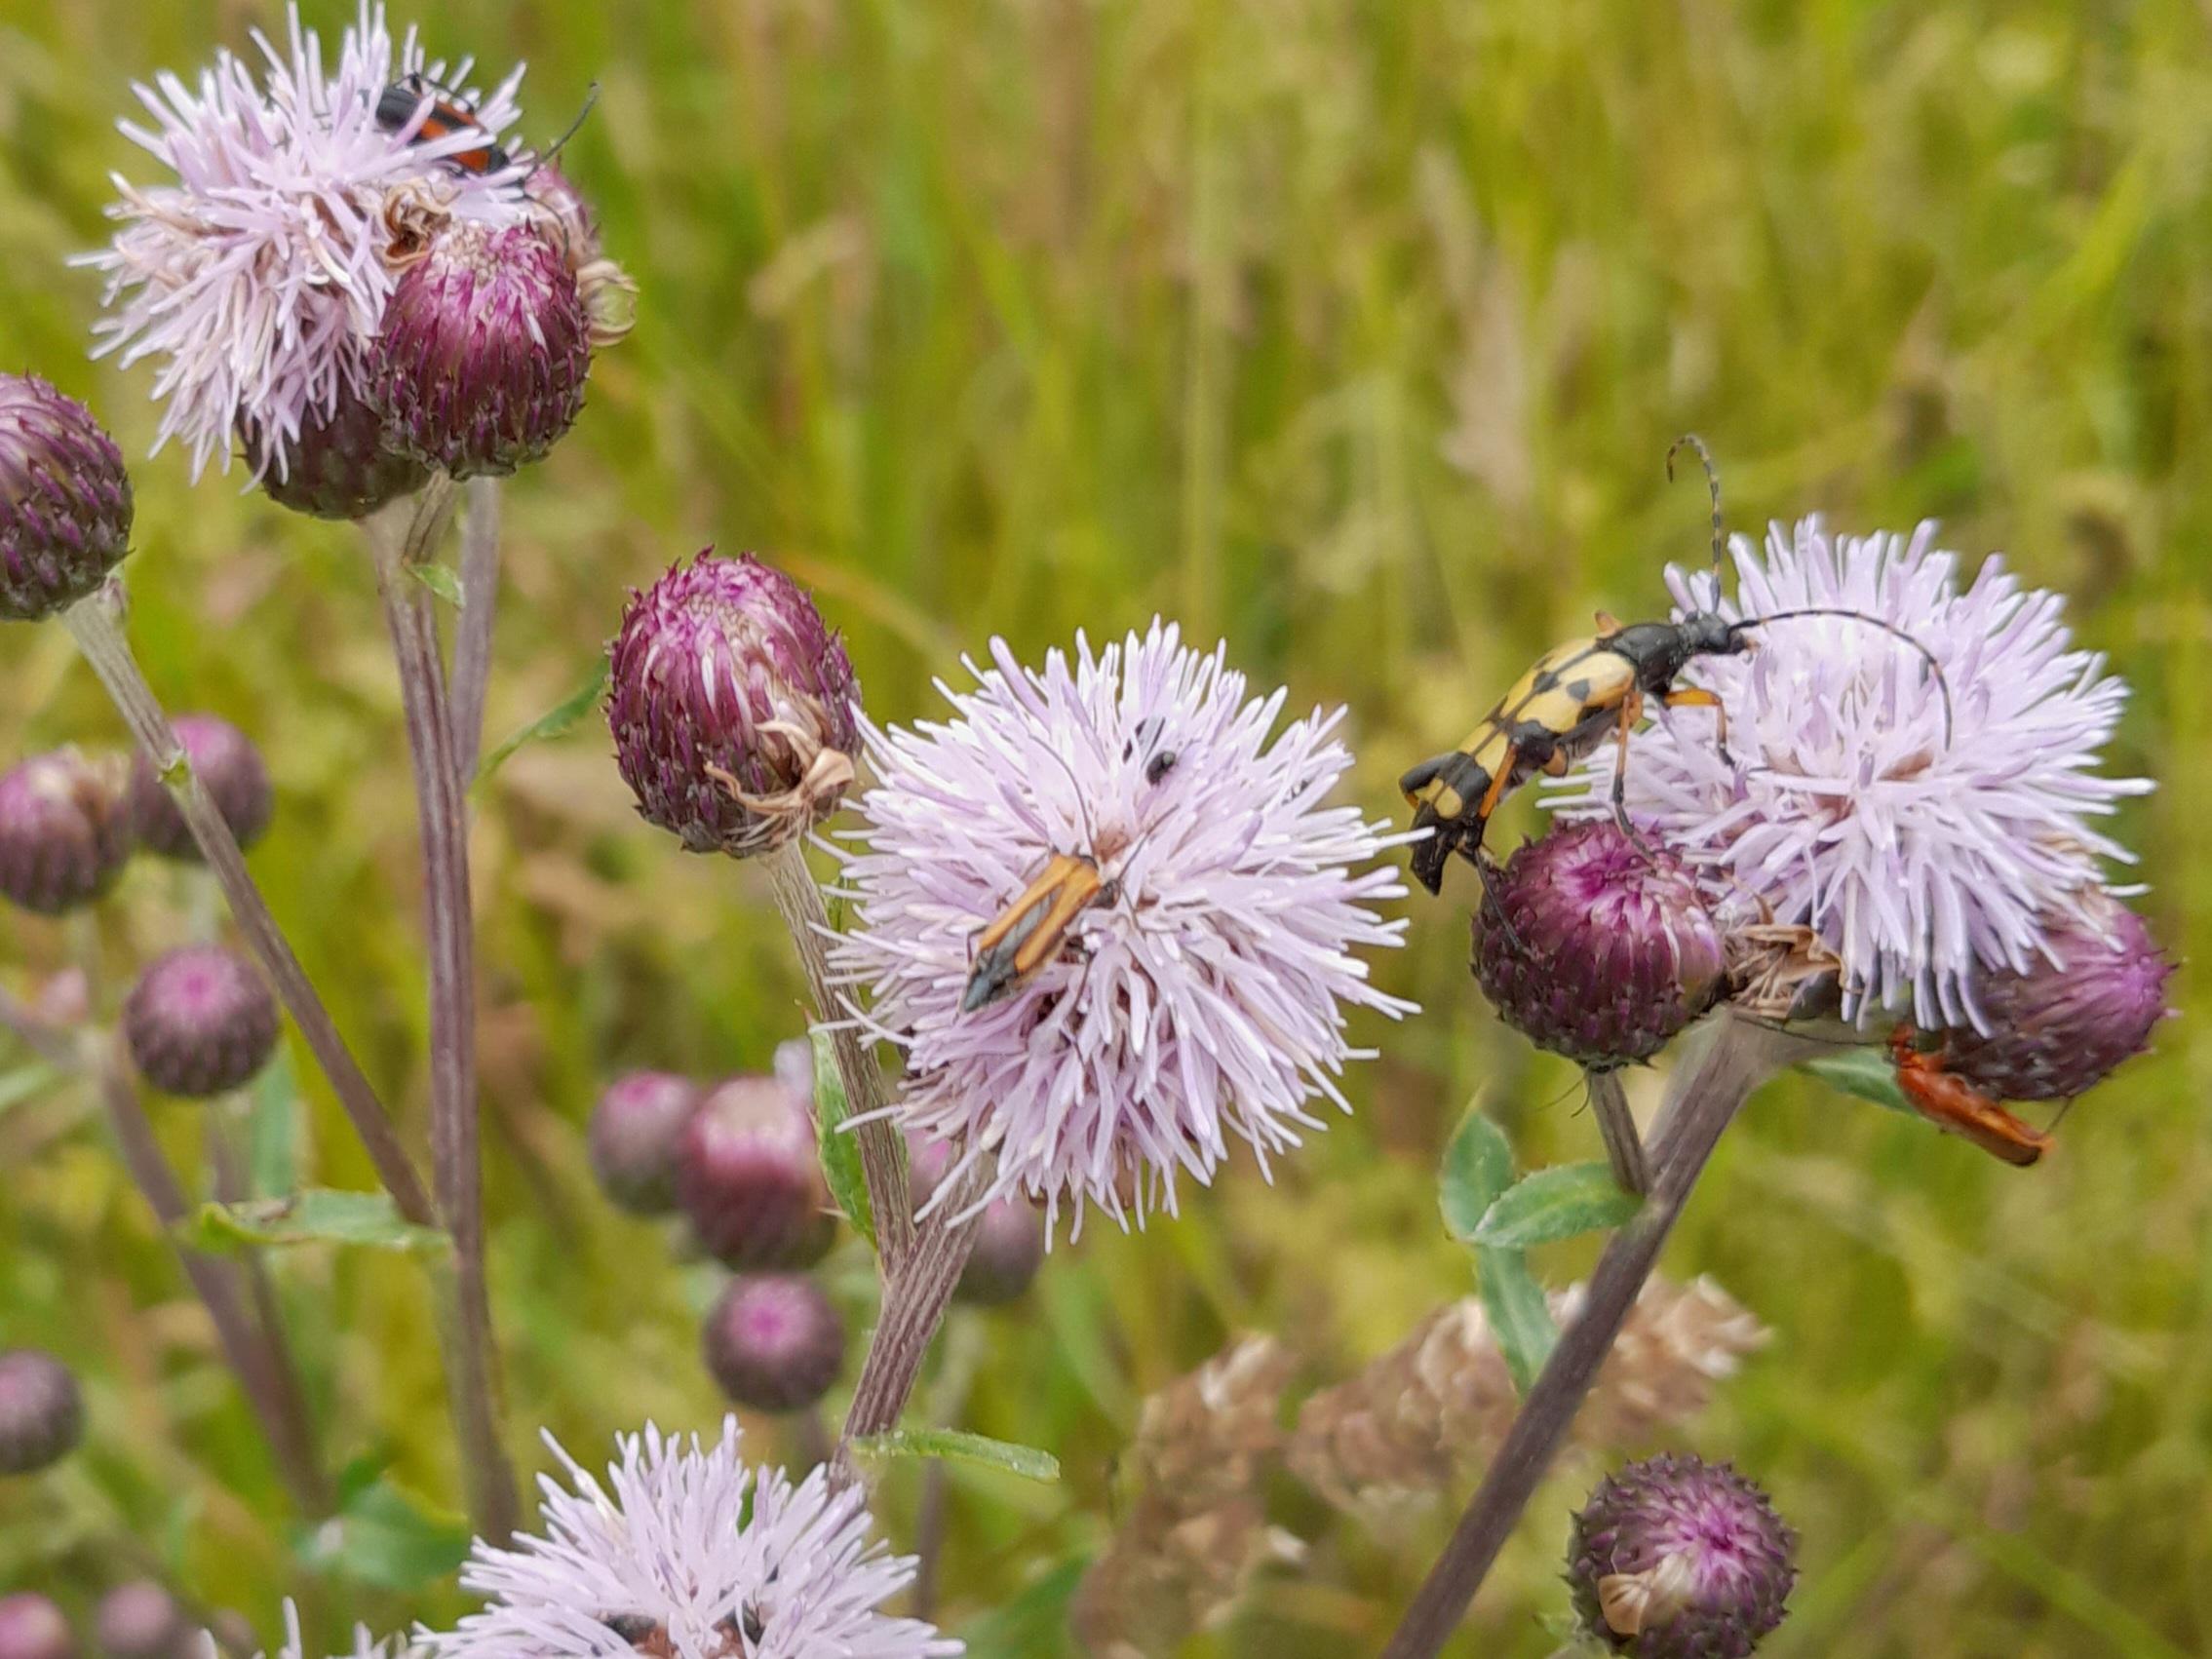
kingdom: Animalia
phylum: Arthropoda
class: Insecta
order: Coleoptera
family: Oedemeridae
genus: Oedemera
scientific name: Oedemera femorata
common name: Gulvinget solbille
